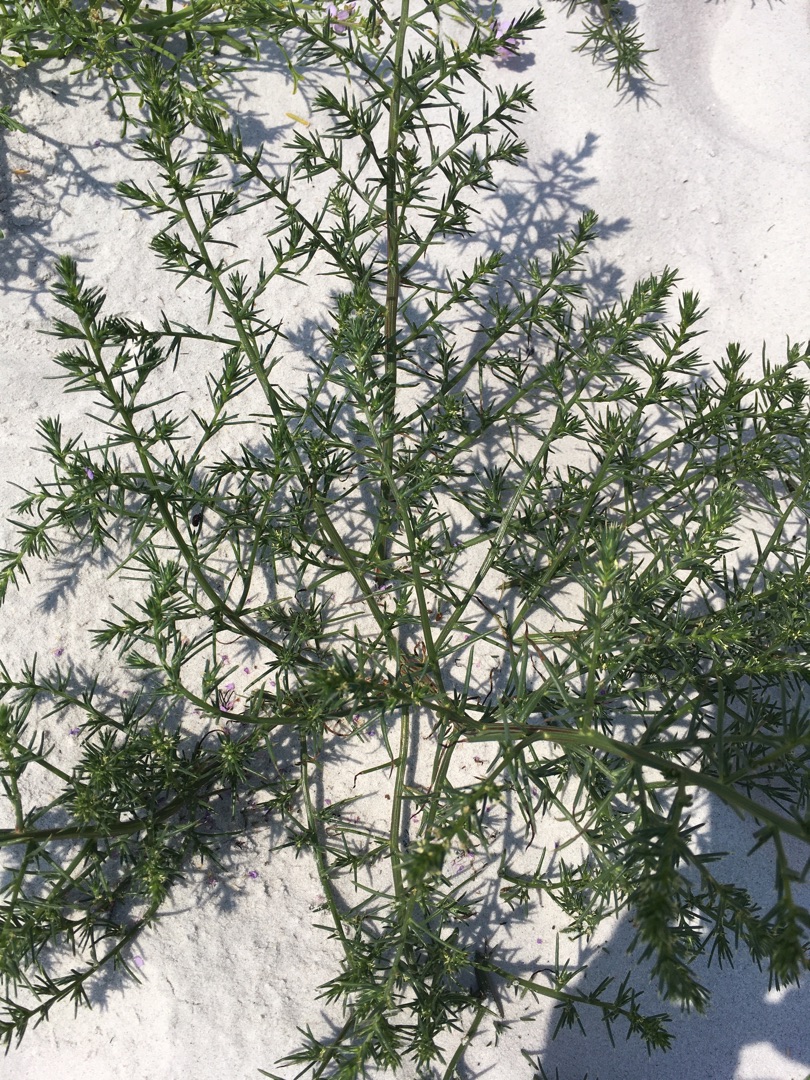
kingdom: Plantae
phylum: Tracheophyta
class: Magnoliopsida
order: Caryophyllales
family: Amaranthaceae
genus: Salsola
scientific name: Salsola kali
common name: Sodaurt
